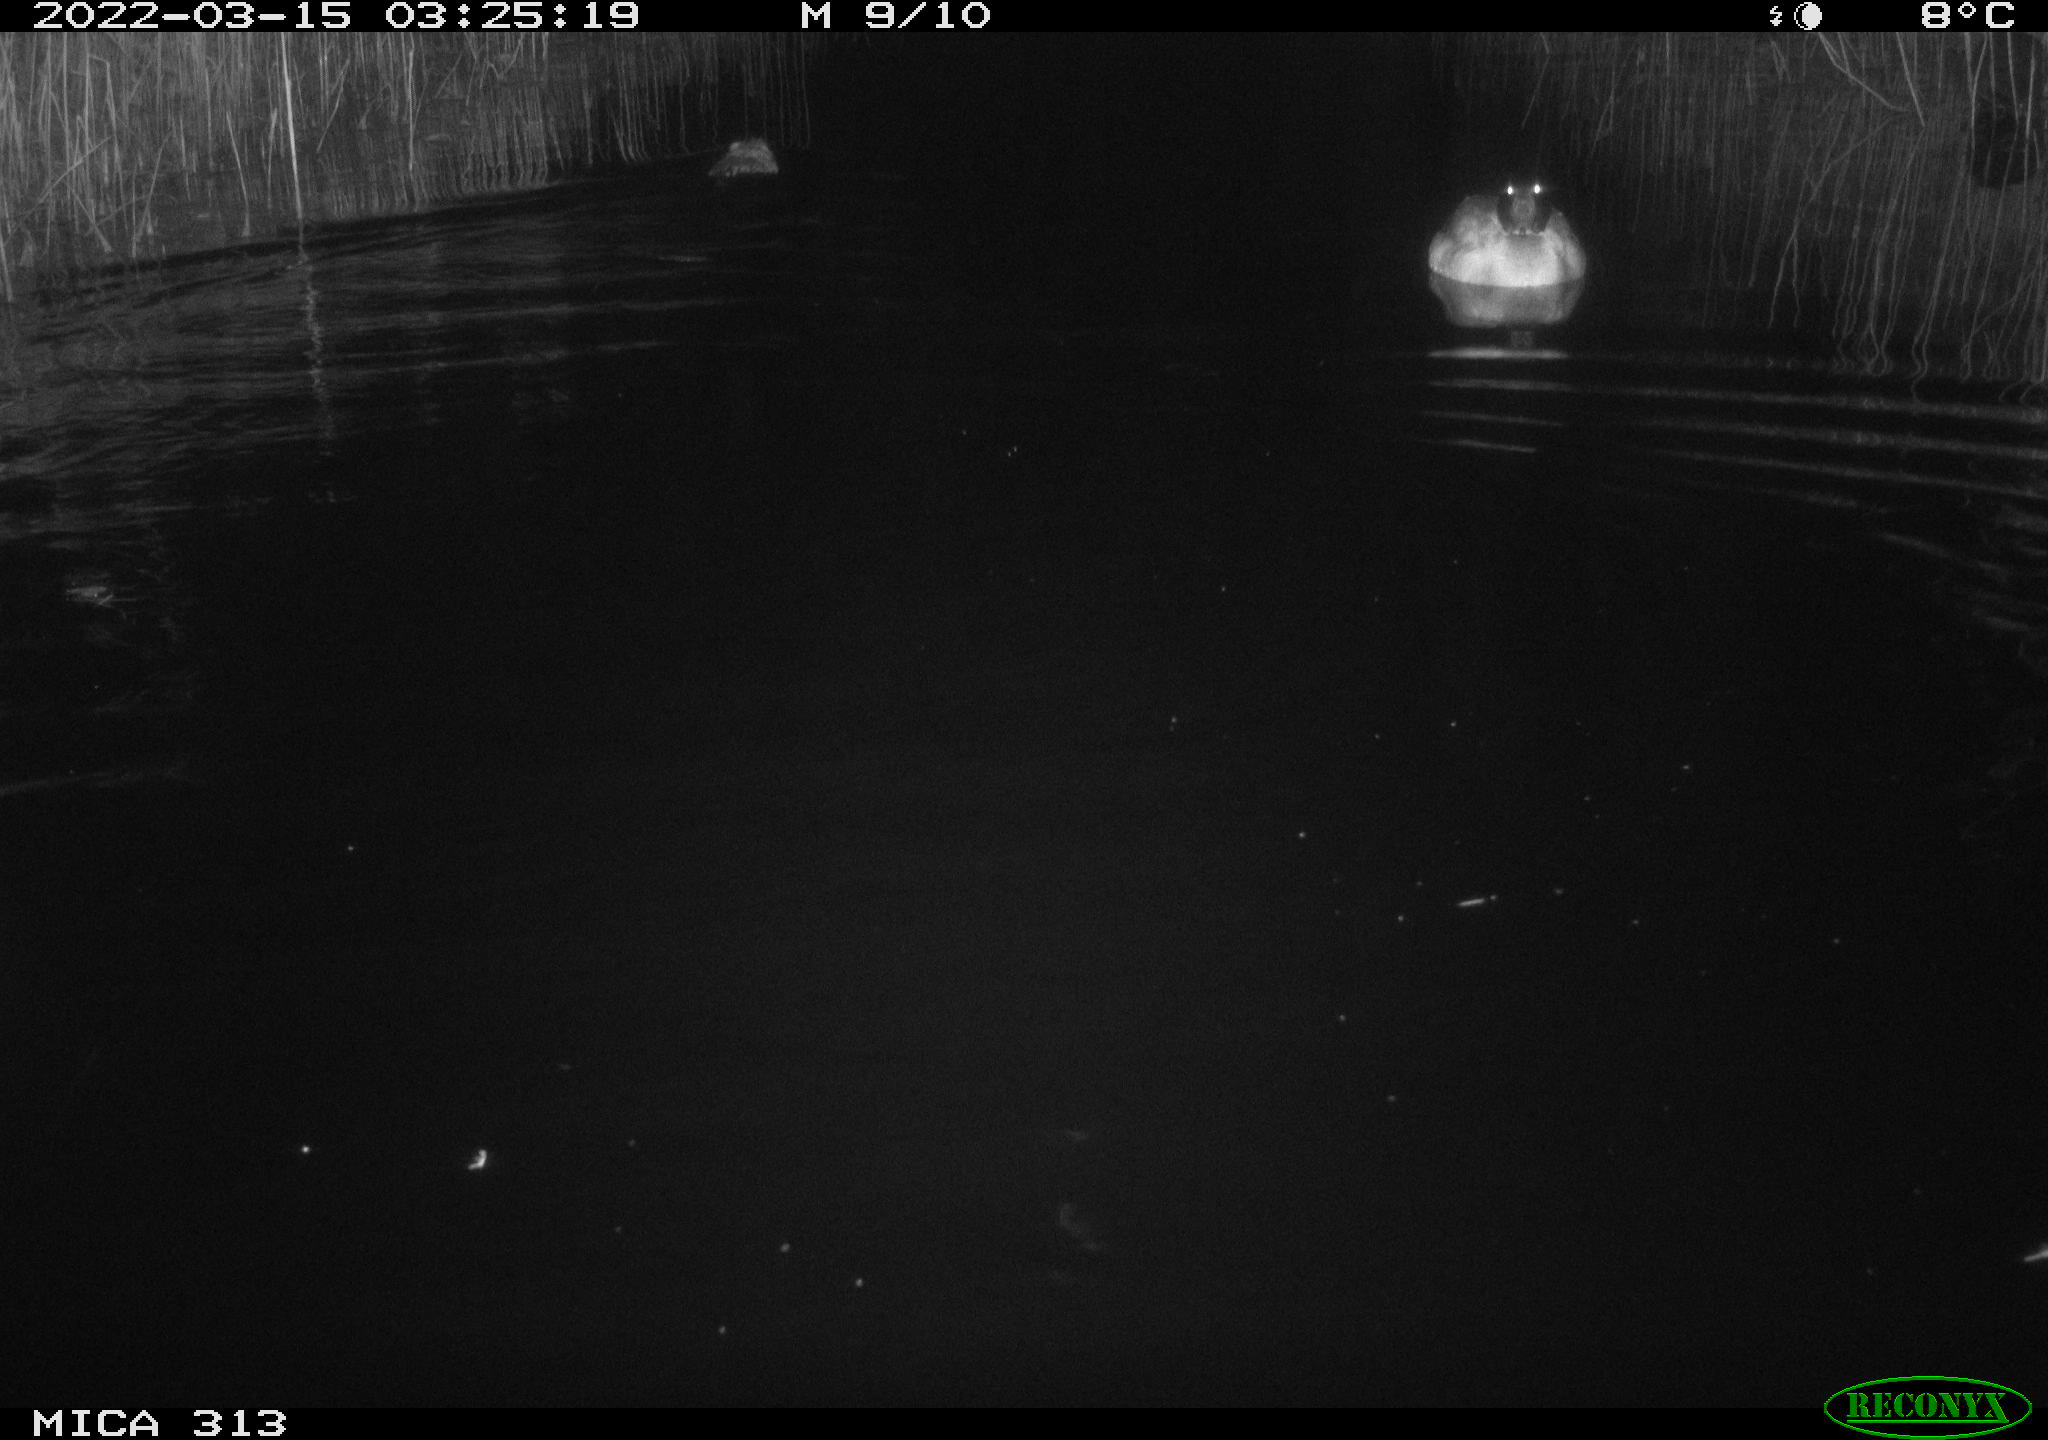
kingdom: Animalia
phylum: Chordata
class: Mammalia
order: Rodentia
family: Cricetidae
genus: Ondatra
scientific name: Ondatra zibethicus
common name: Muskrat
